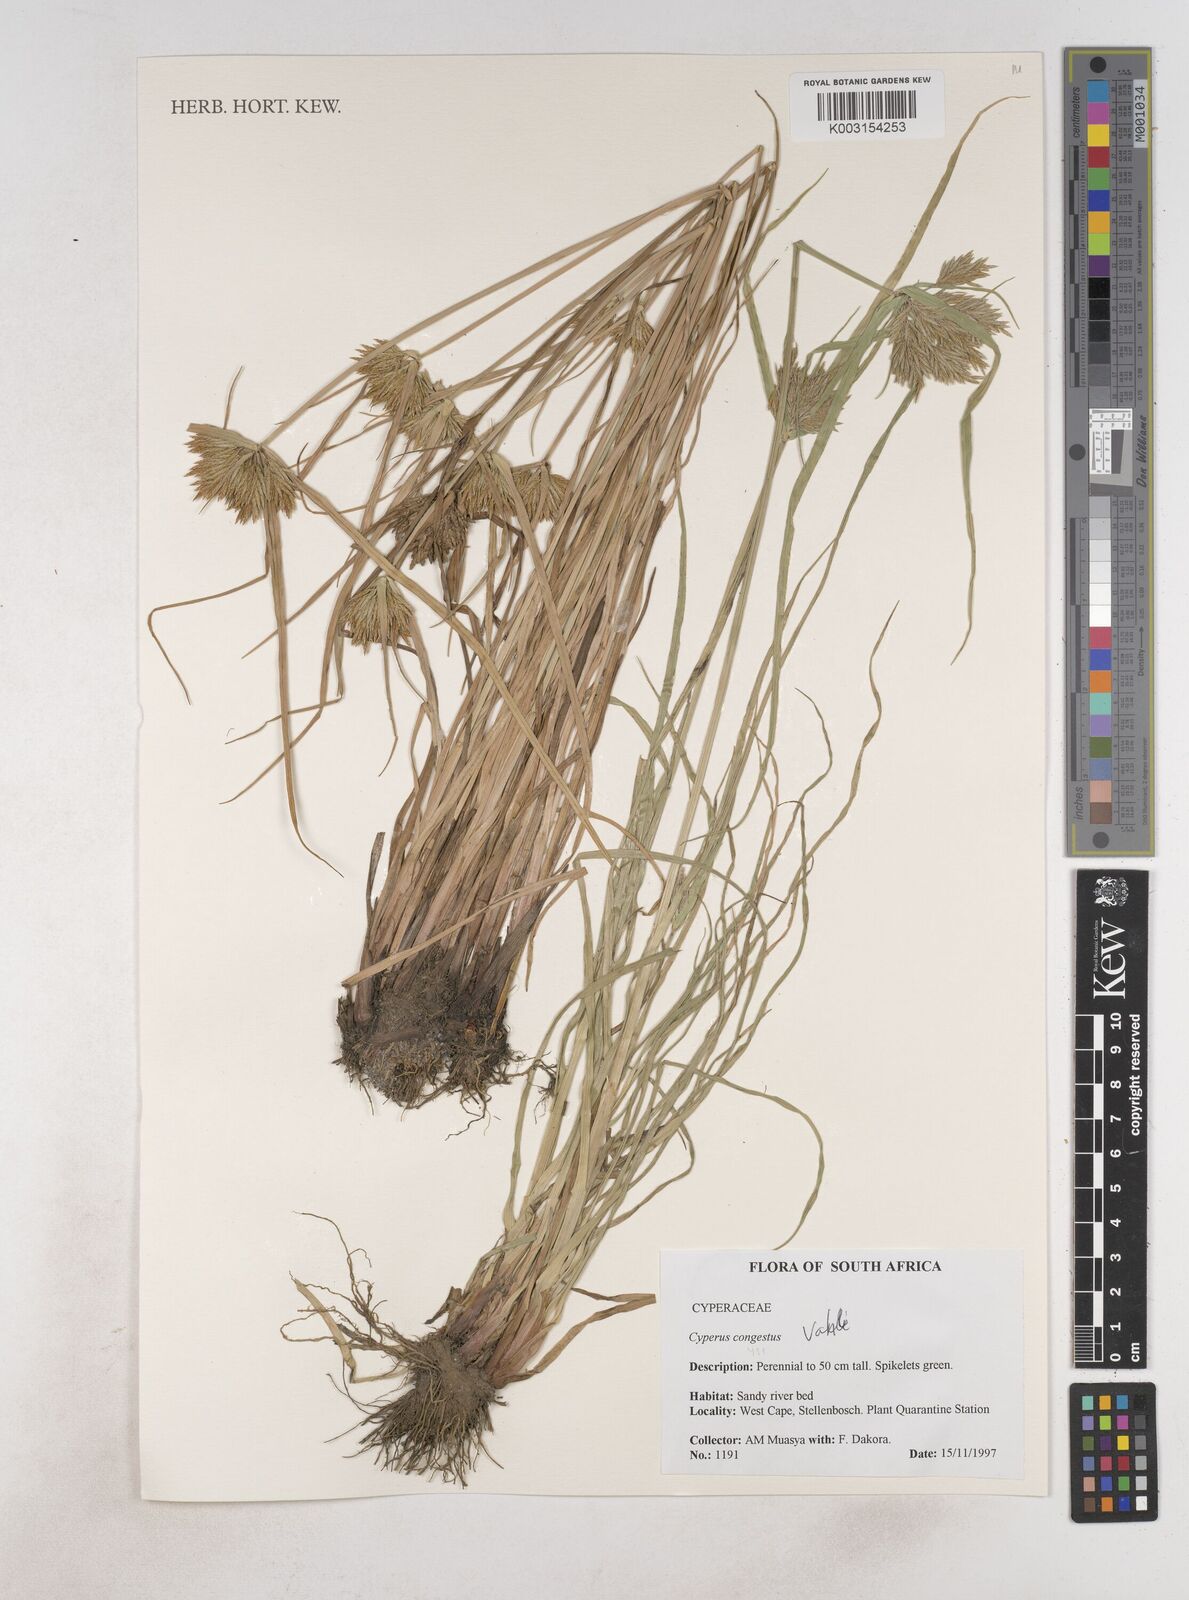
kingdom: Plantae
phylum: Tracheophyta
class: Liliopsida
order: Poales
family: Cyperaceae
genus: Cyperus
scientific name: Cyperus congestus
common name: Dense flat sedge
